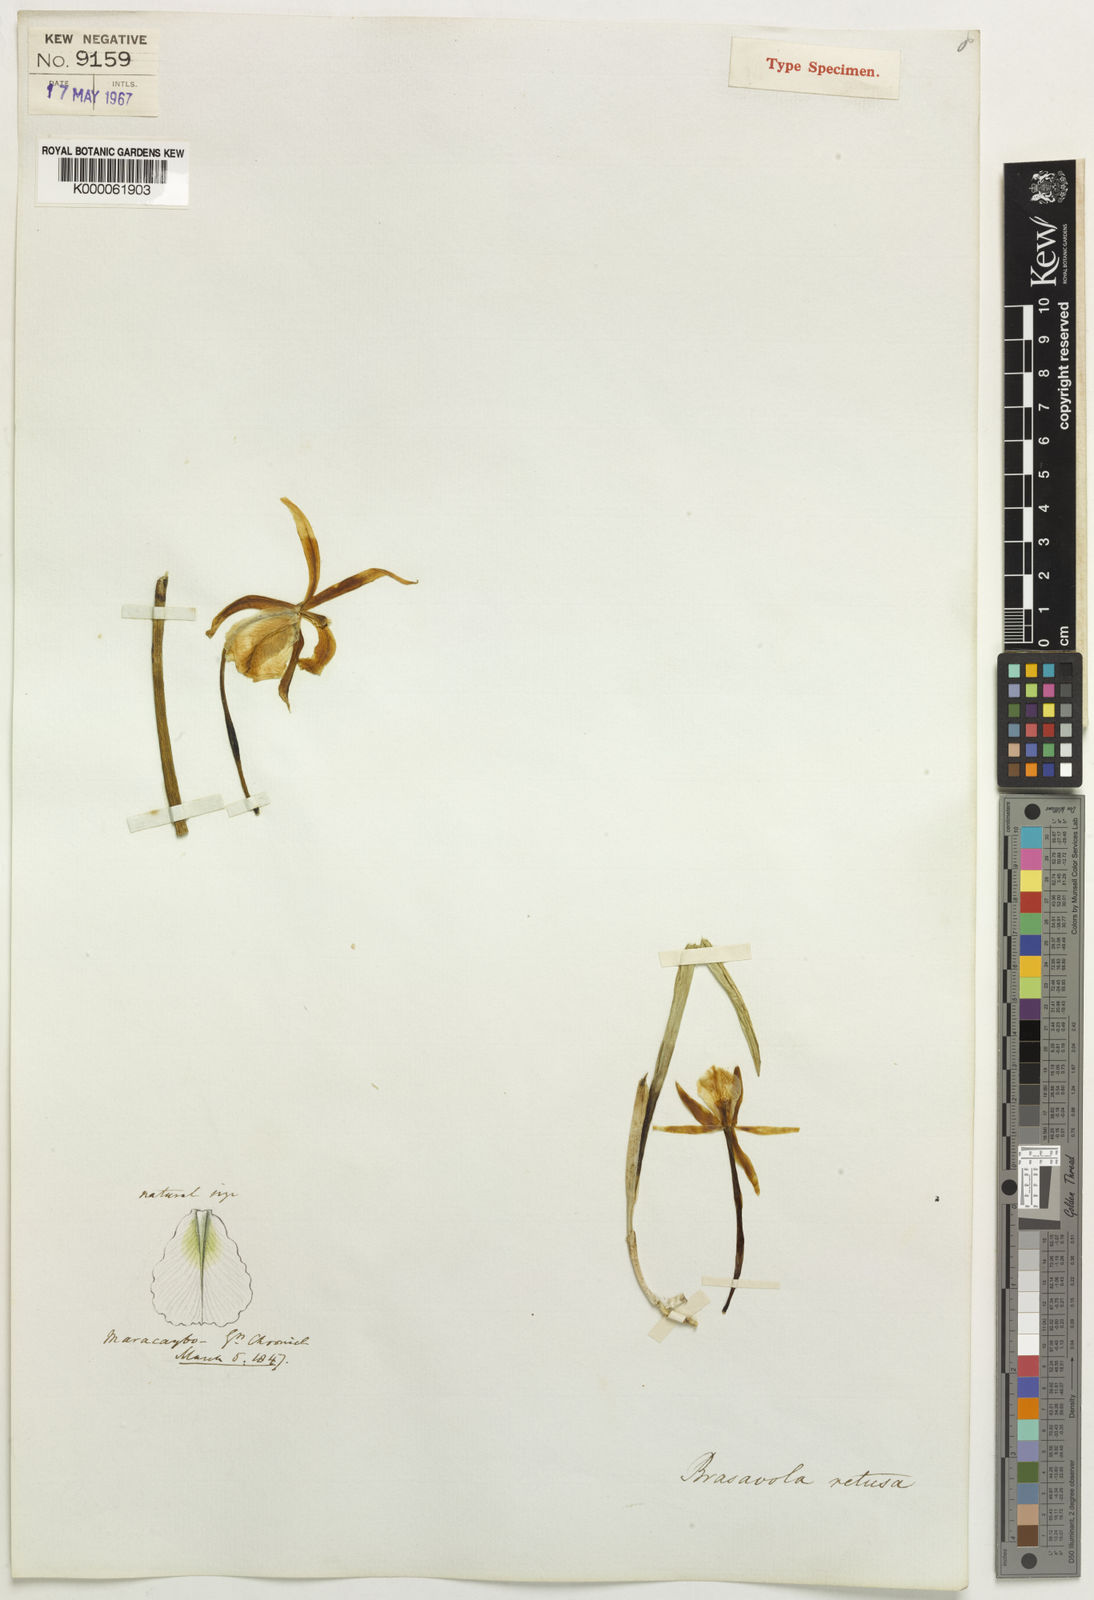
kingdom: Plantae
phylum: Tracheophyta
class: Liliopsida
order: Asparagales
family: Orchidaceae
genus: Brassavola
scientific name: Brassavola retusa
